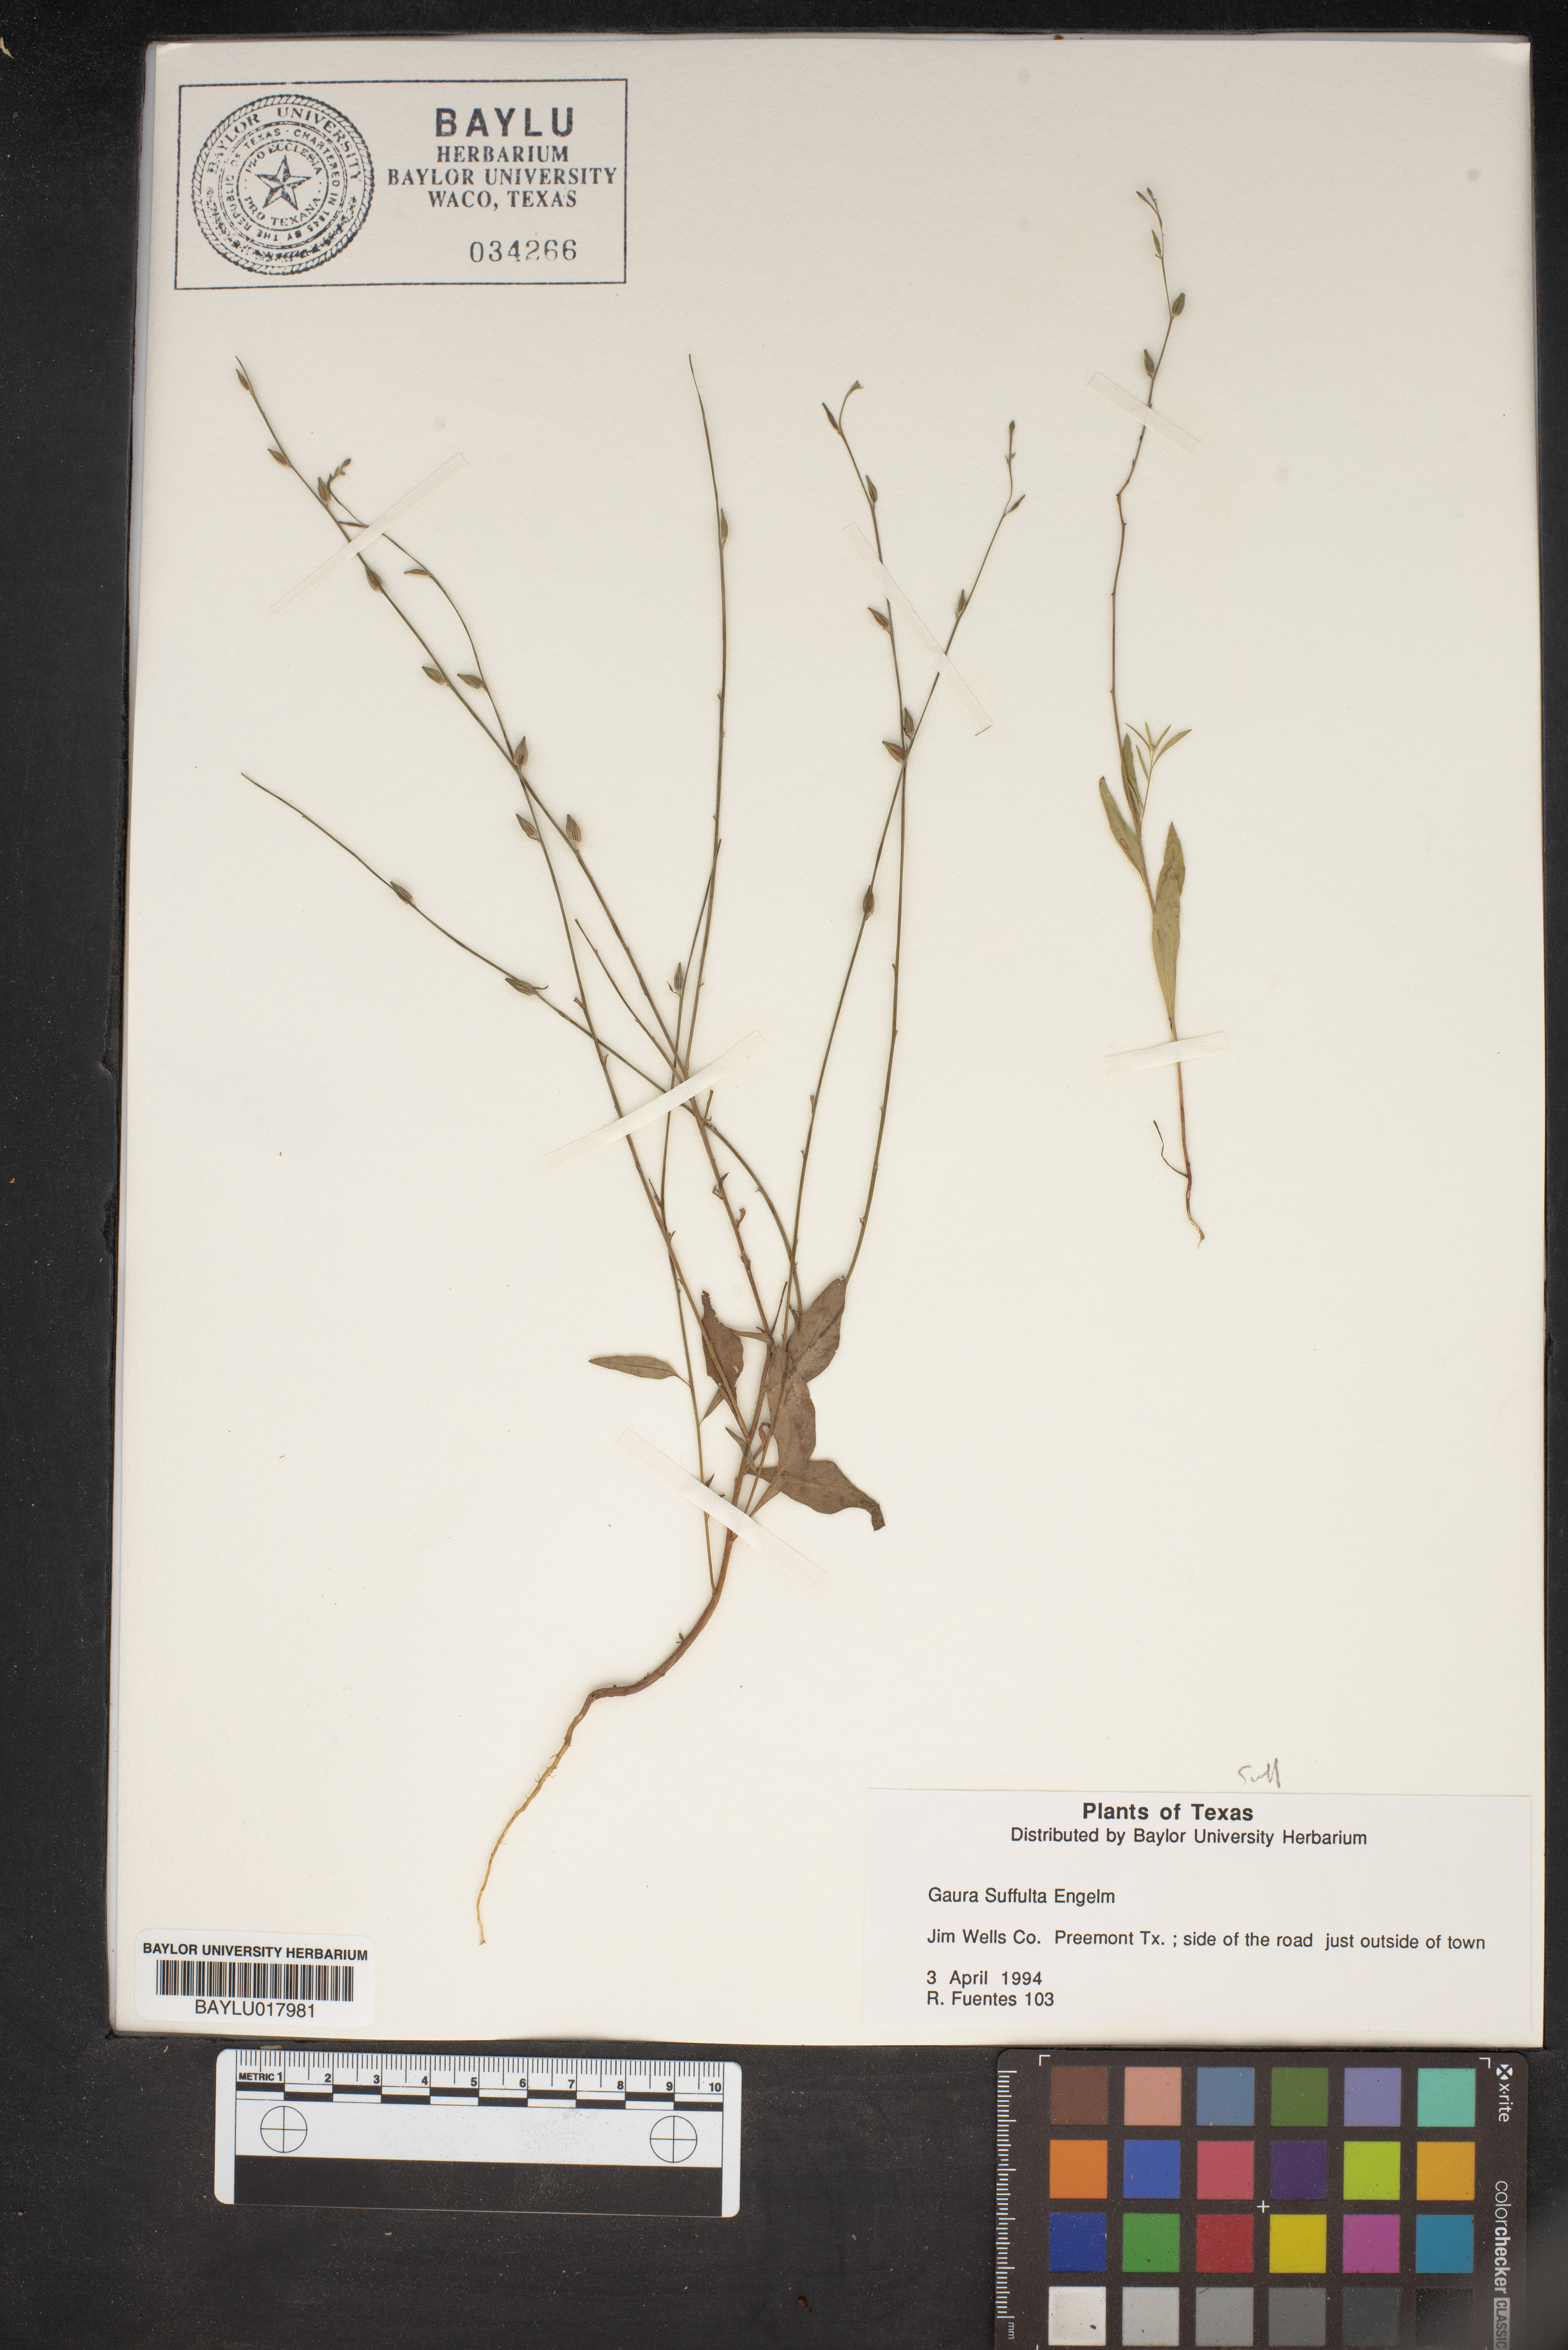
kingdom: Plantae
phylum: Tracheophyta
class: Magnoliopsida
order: Myrtales
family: Onagraceae
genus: Oenothera
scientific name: Oenothera Gaura suffulta
